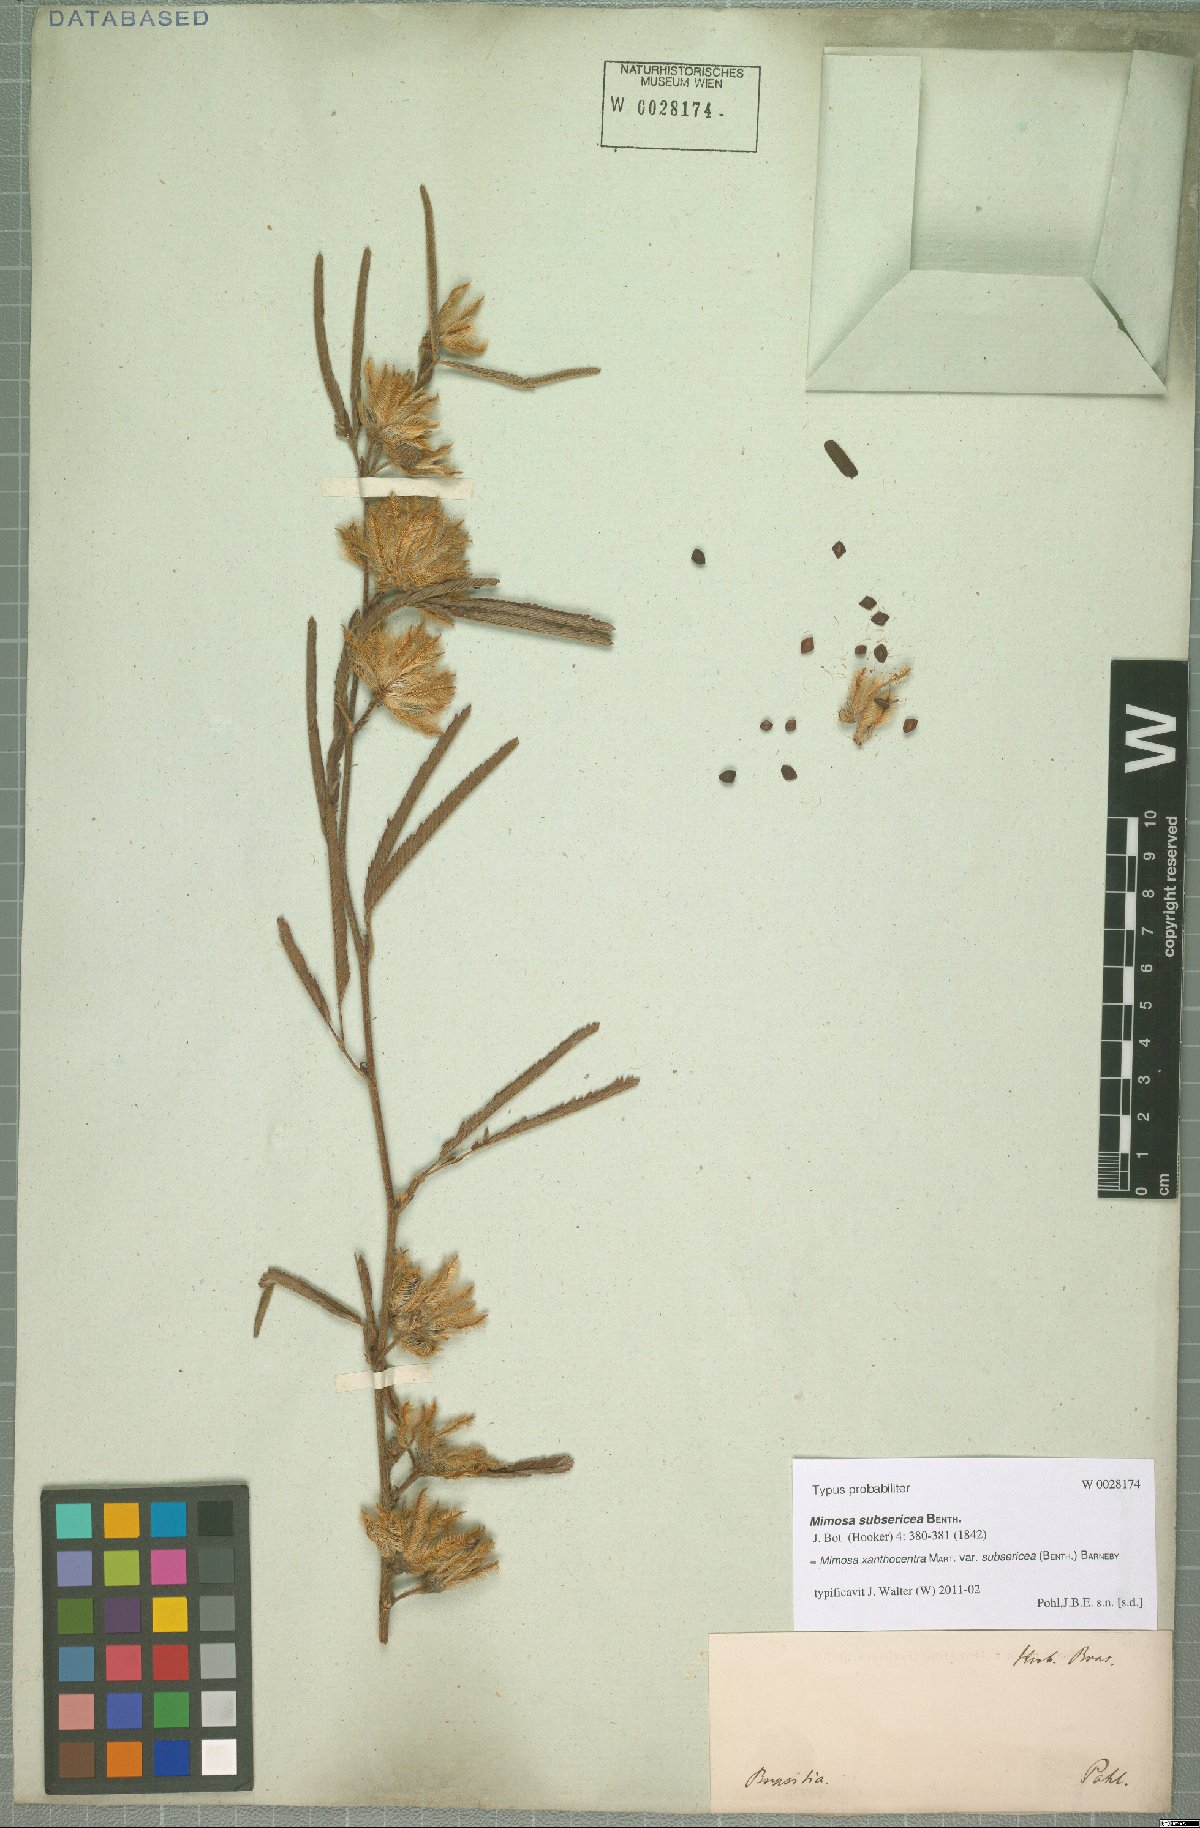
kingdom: Plantae
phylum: Tracheophyta
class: Magnoliopsida
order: Fabales
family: Fabaceae
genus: Mimosa
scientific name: Mimosa xanthocentra
